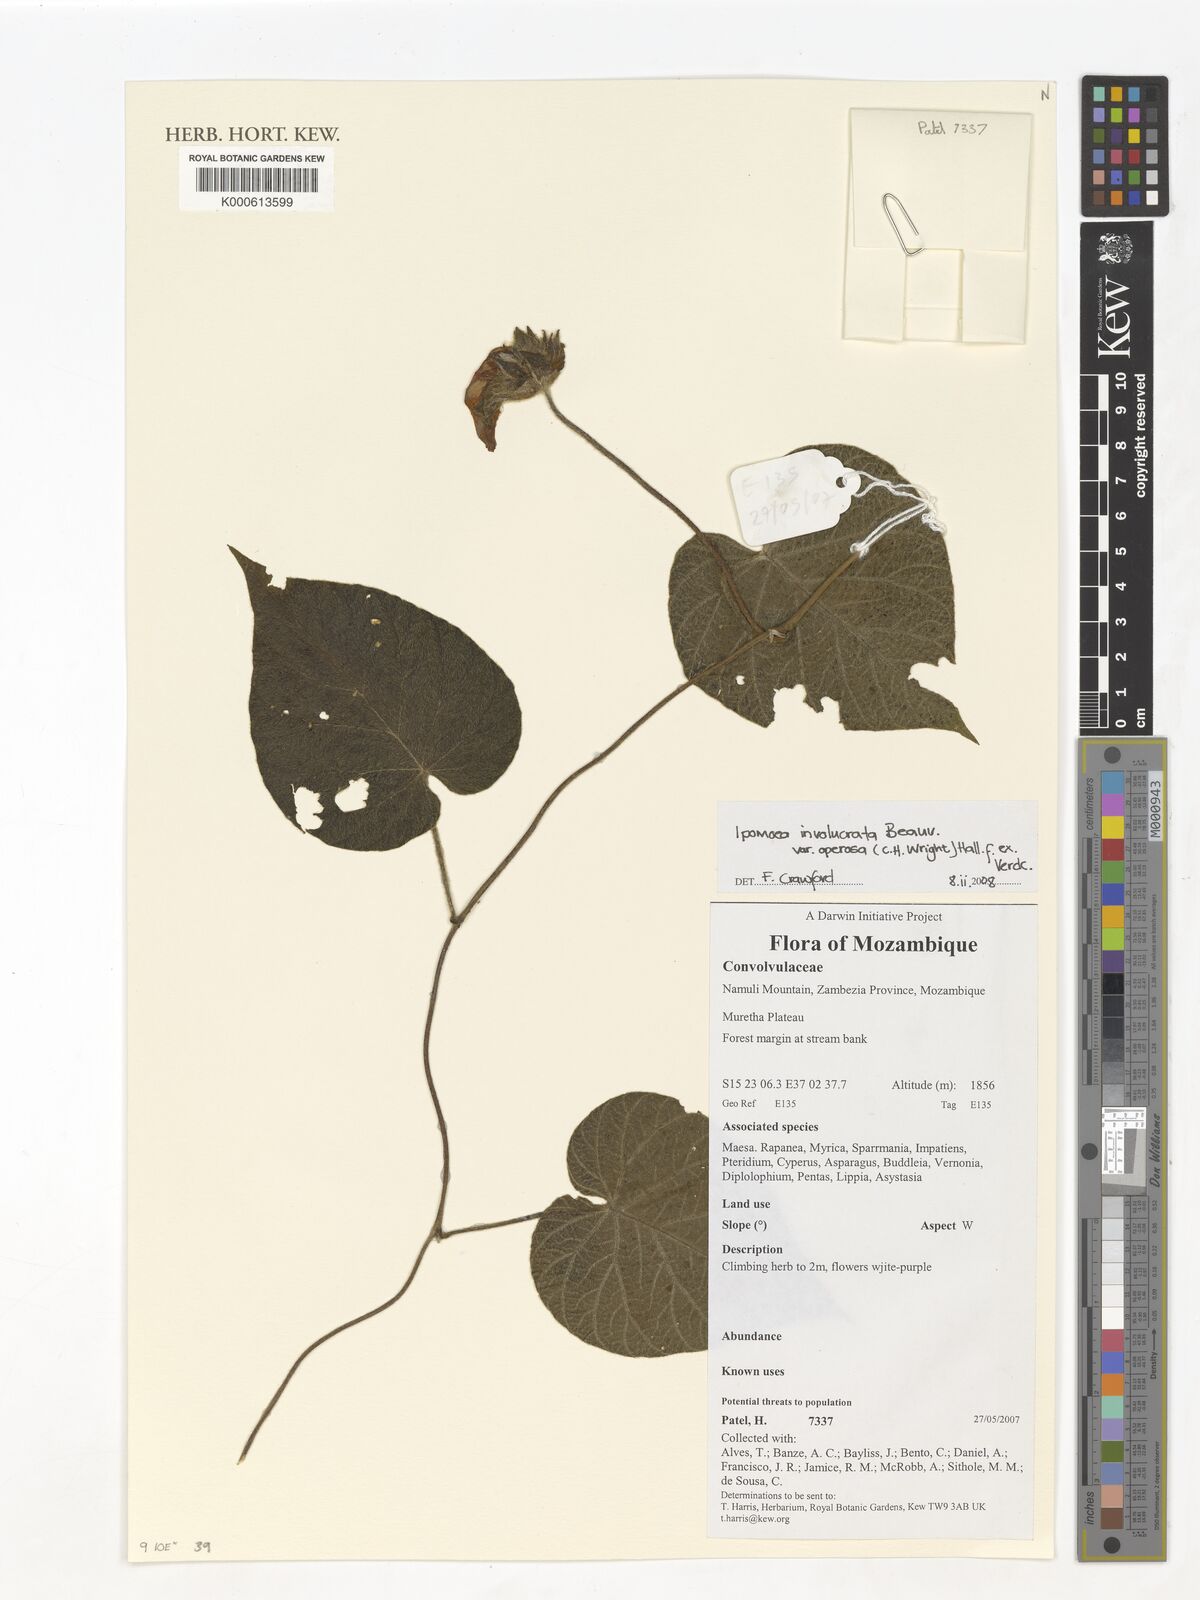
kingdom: Plantae
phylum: Tracheophyta
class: Magnoliopsida
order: Solanales
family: Convolvulaceae
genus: Ipomoea
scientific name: Ipomoea involucrata
